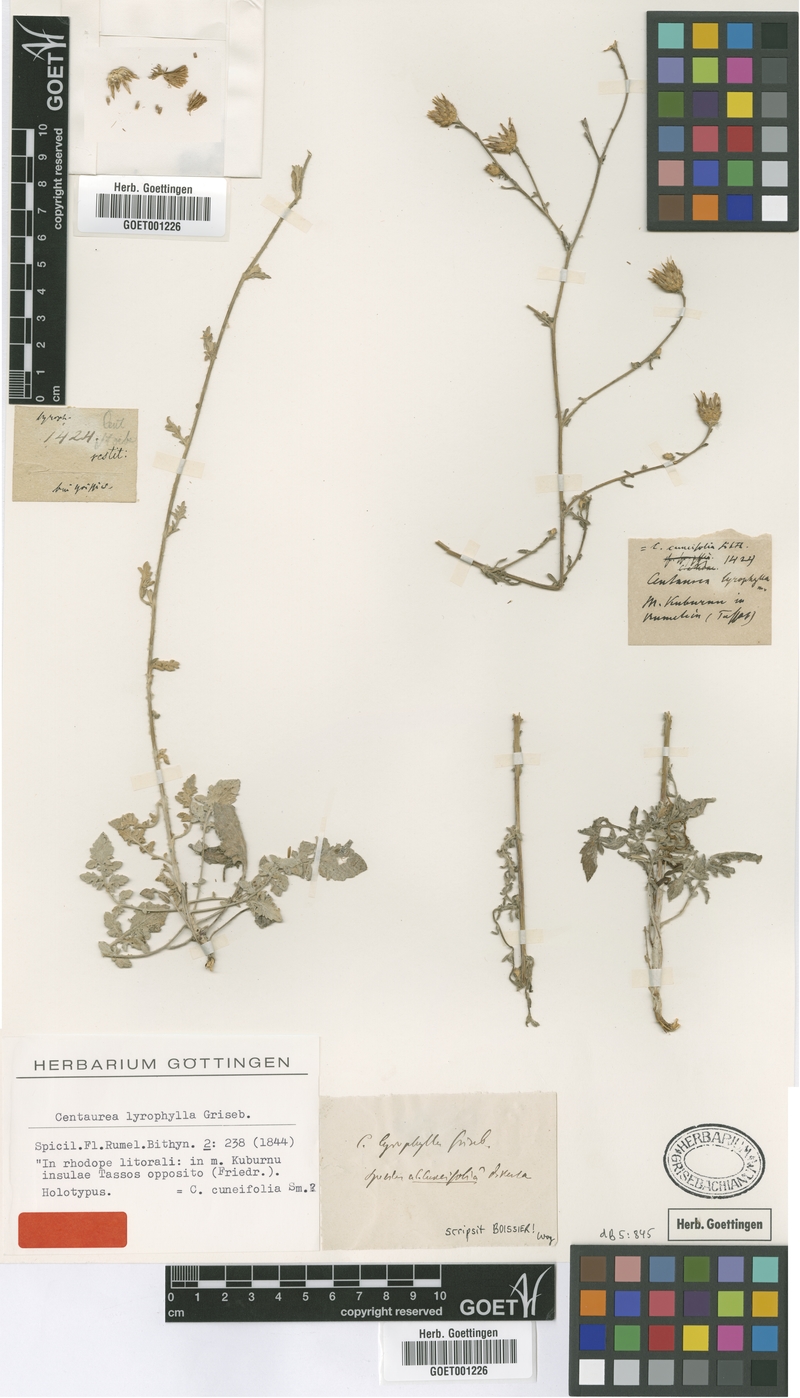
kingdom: Plantae
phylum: Tracheophyta
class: Magnoliopsida
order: Asterales
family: Asteraceae
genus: Centaurea
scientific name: Centaurea cuneifolia
